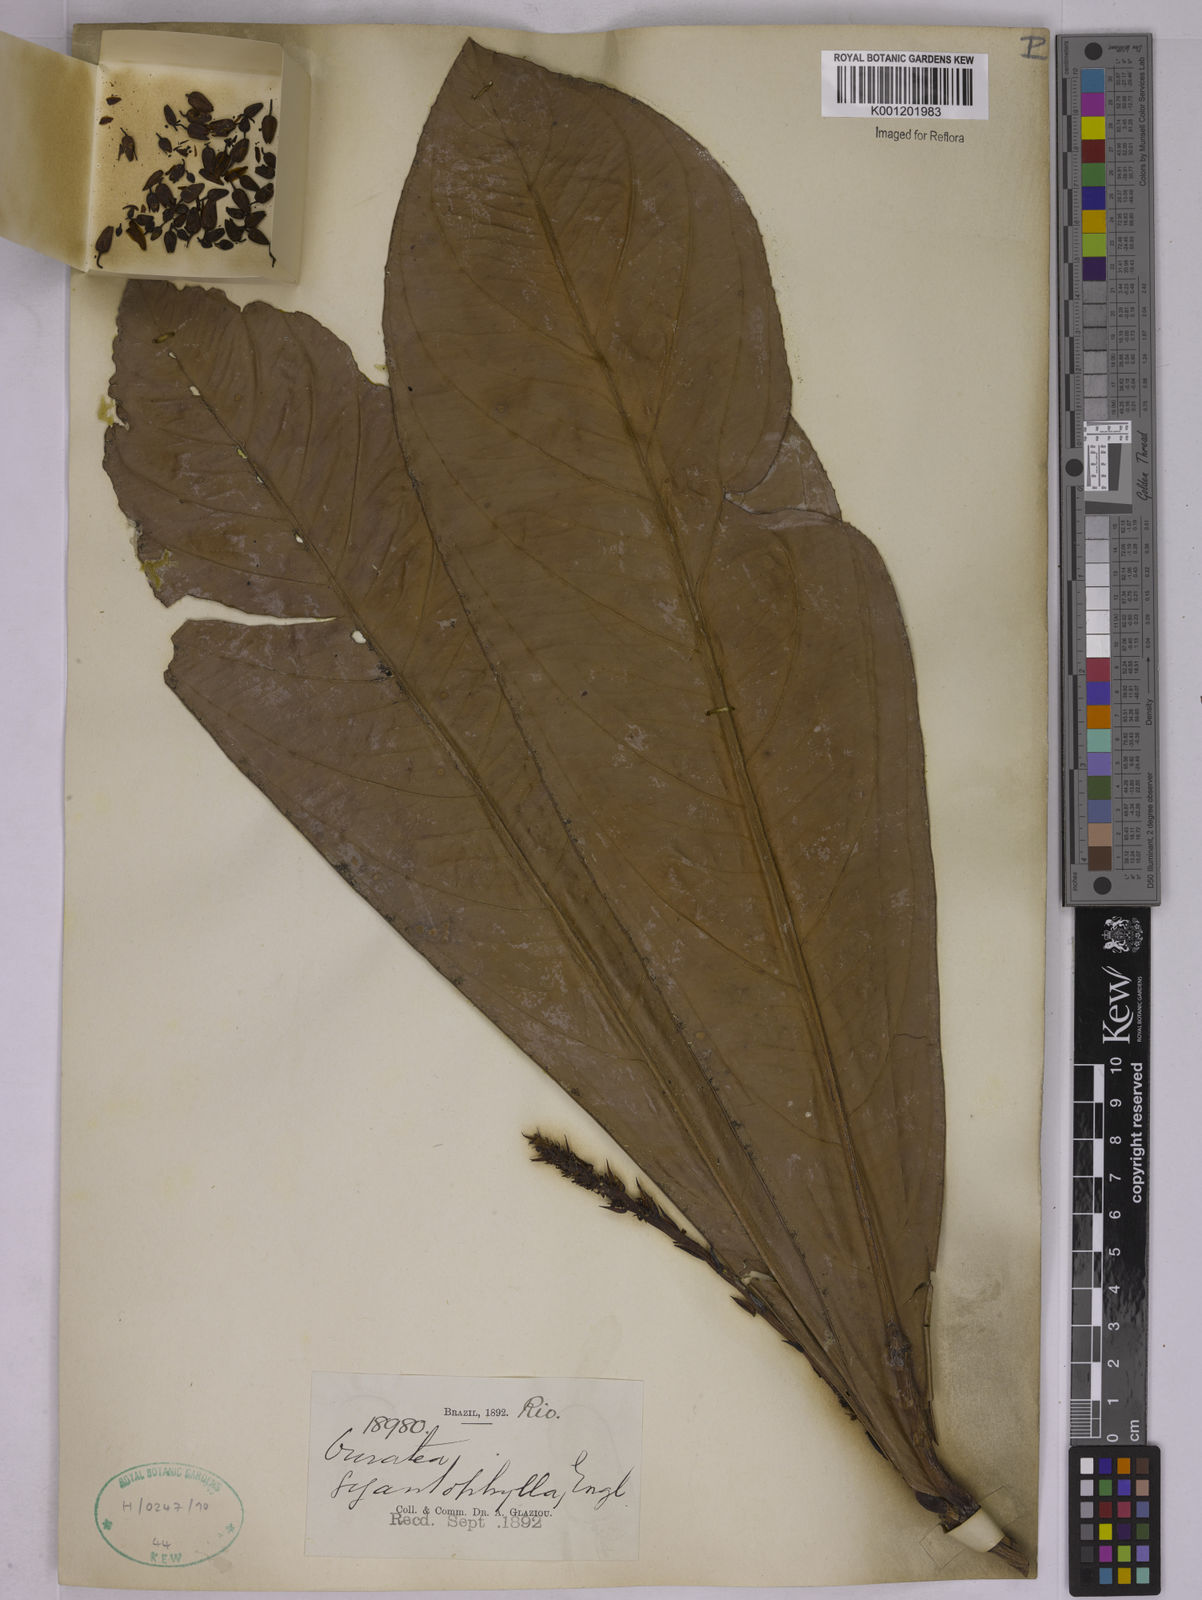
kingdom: Plantae
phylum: Tracheophyta
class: Magnoliopsida
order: Malpighiales
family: Ochnaceae
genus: Ouratea
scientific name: Ouratea gigantophylla
